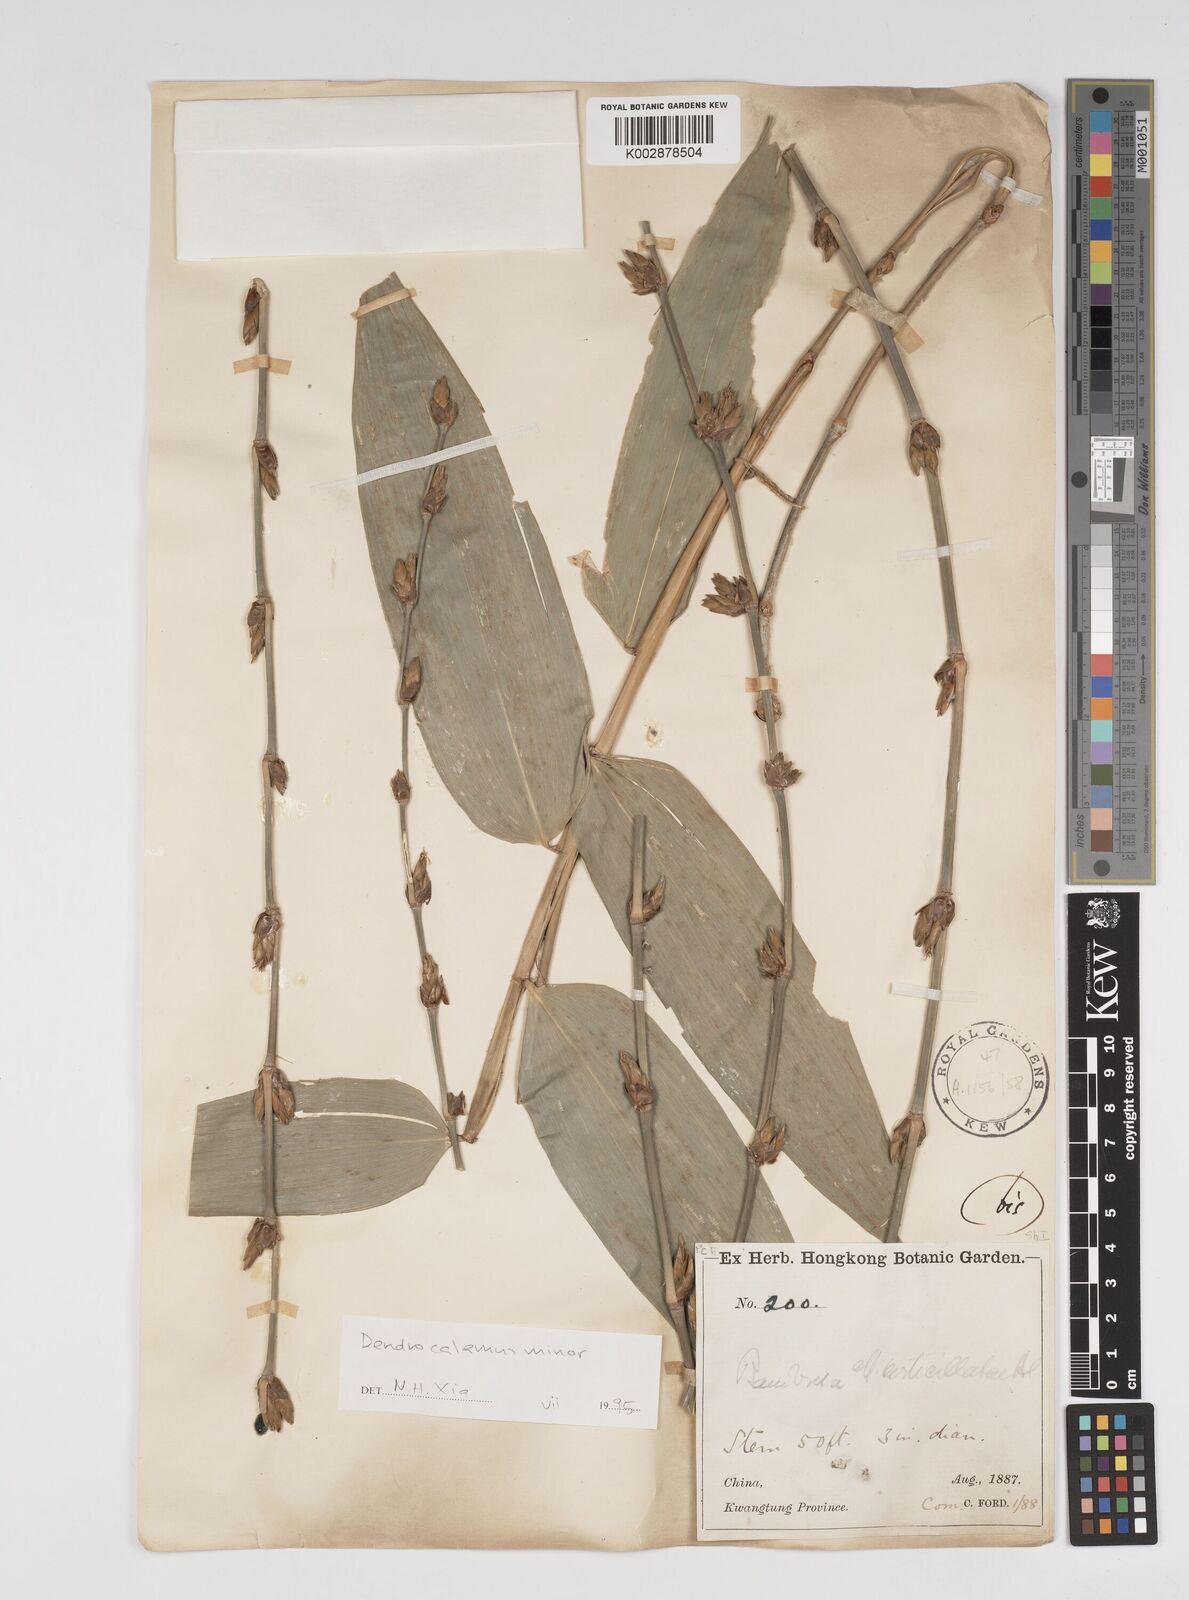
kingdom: Plantae
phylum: Tracheophyta
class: Liliopsida
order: Poales
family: Poaceae
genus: Dendrocalamus
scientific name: Dendrocalamus minor
